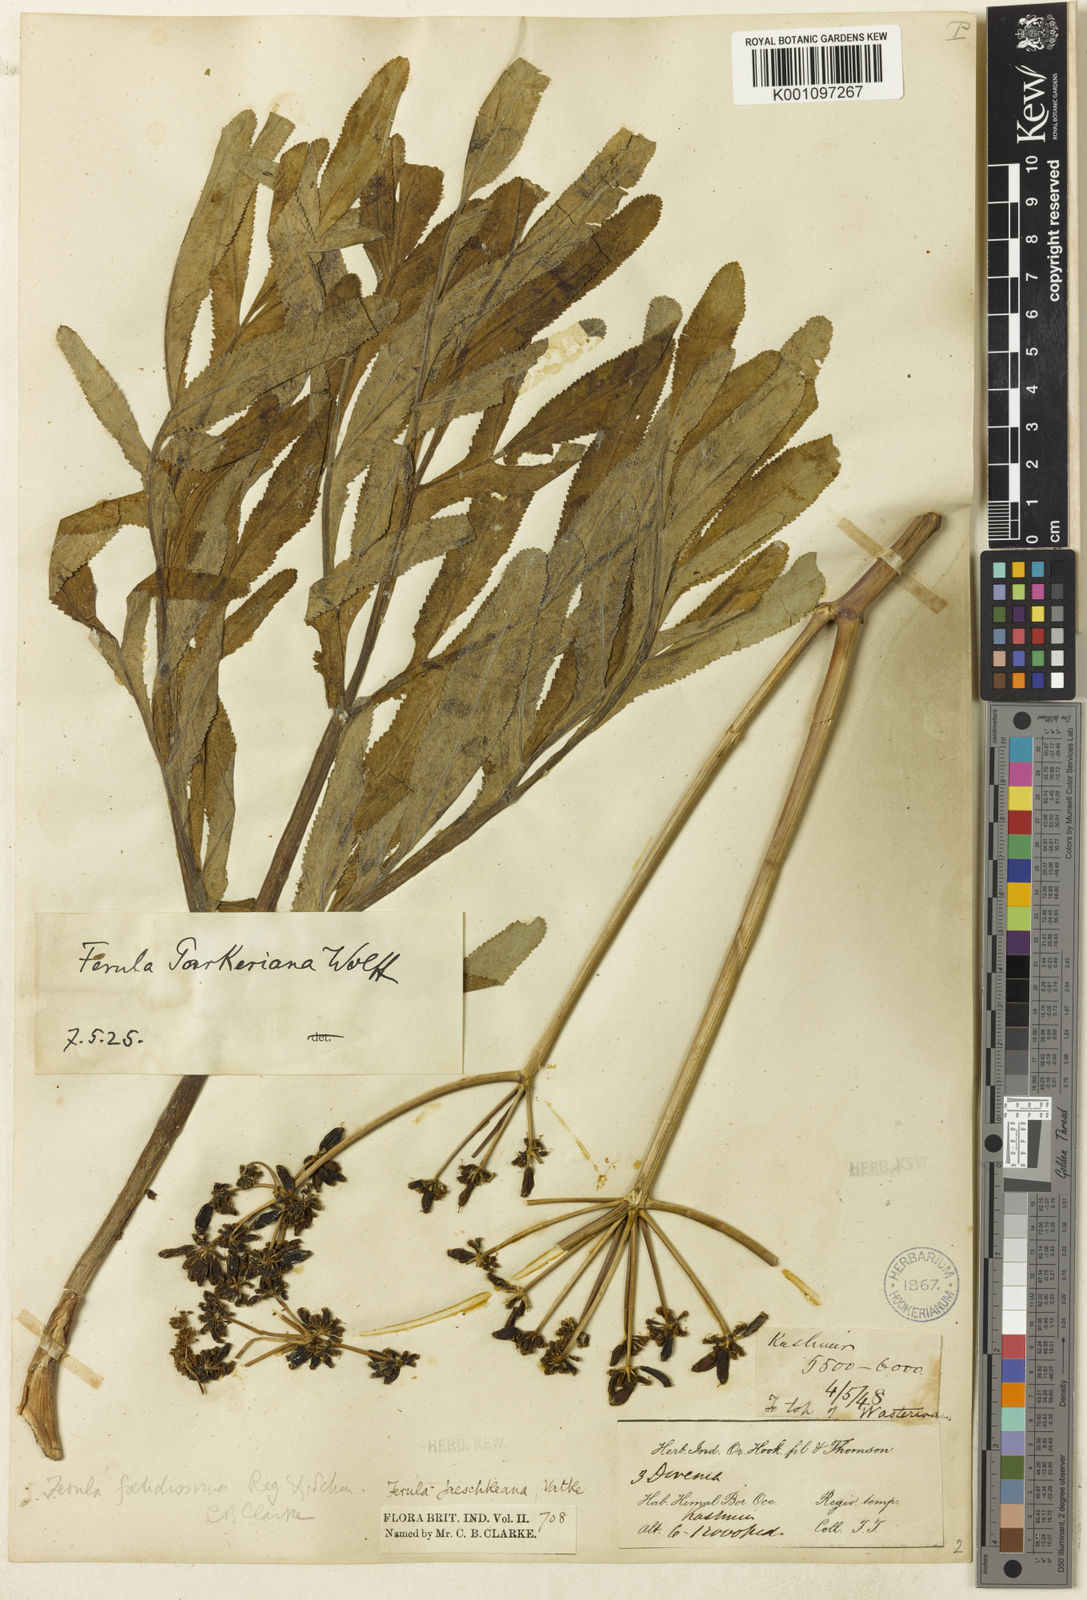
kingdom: Plantae
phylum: Tracheophyta
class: Magnoliopsida
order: Apiales
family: Apiaceae
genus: Ferula
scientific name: Ferula
